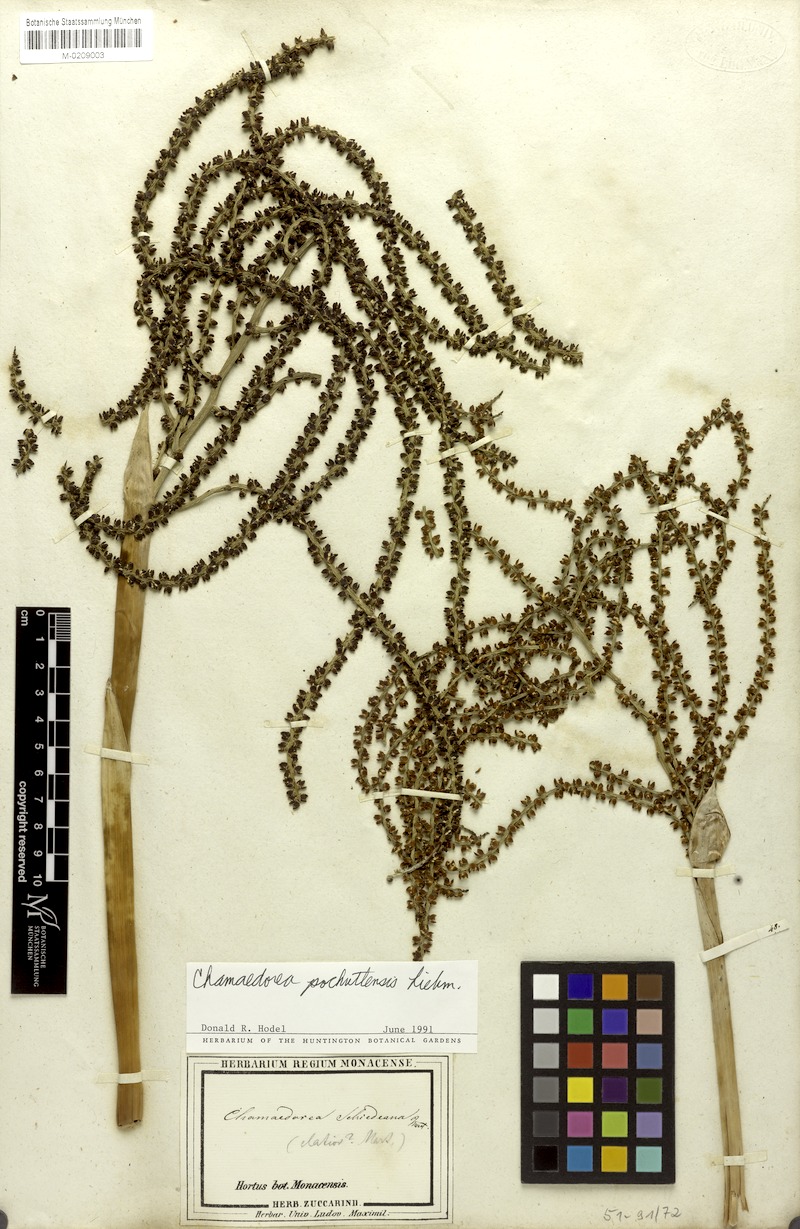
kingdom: Plantae
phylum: Tracheophyta
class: Liliopsida
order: Arecales
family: Arecaceae
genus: Chamaedorea
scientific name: Chamaedorea pochutlensis
